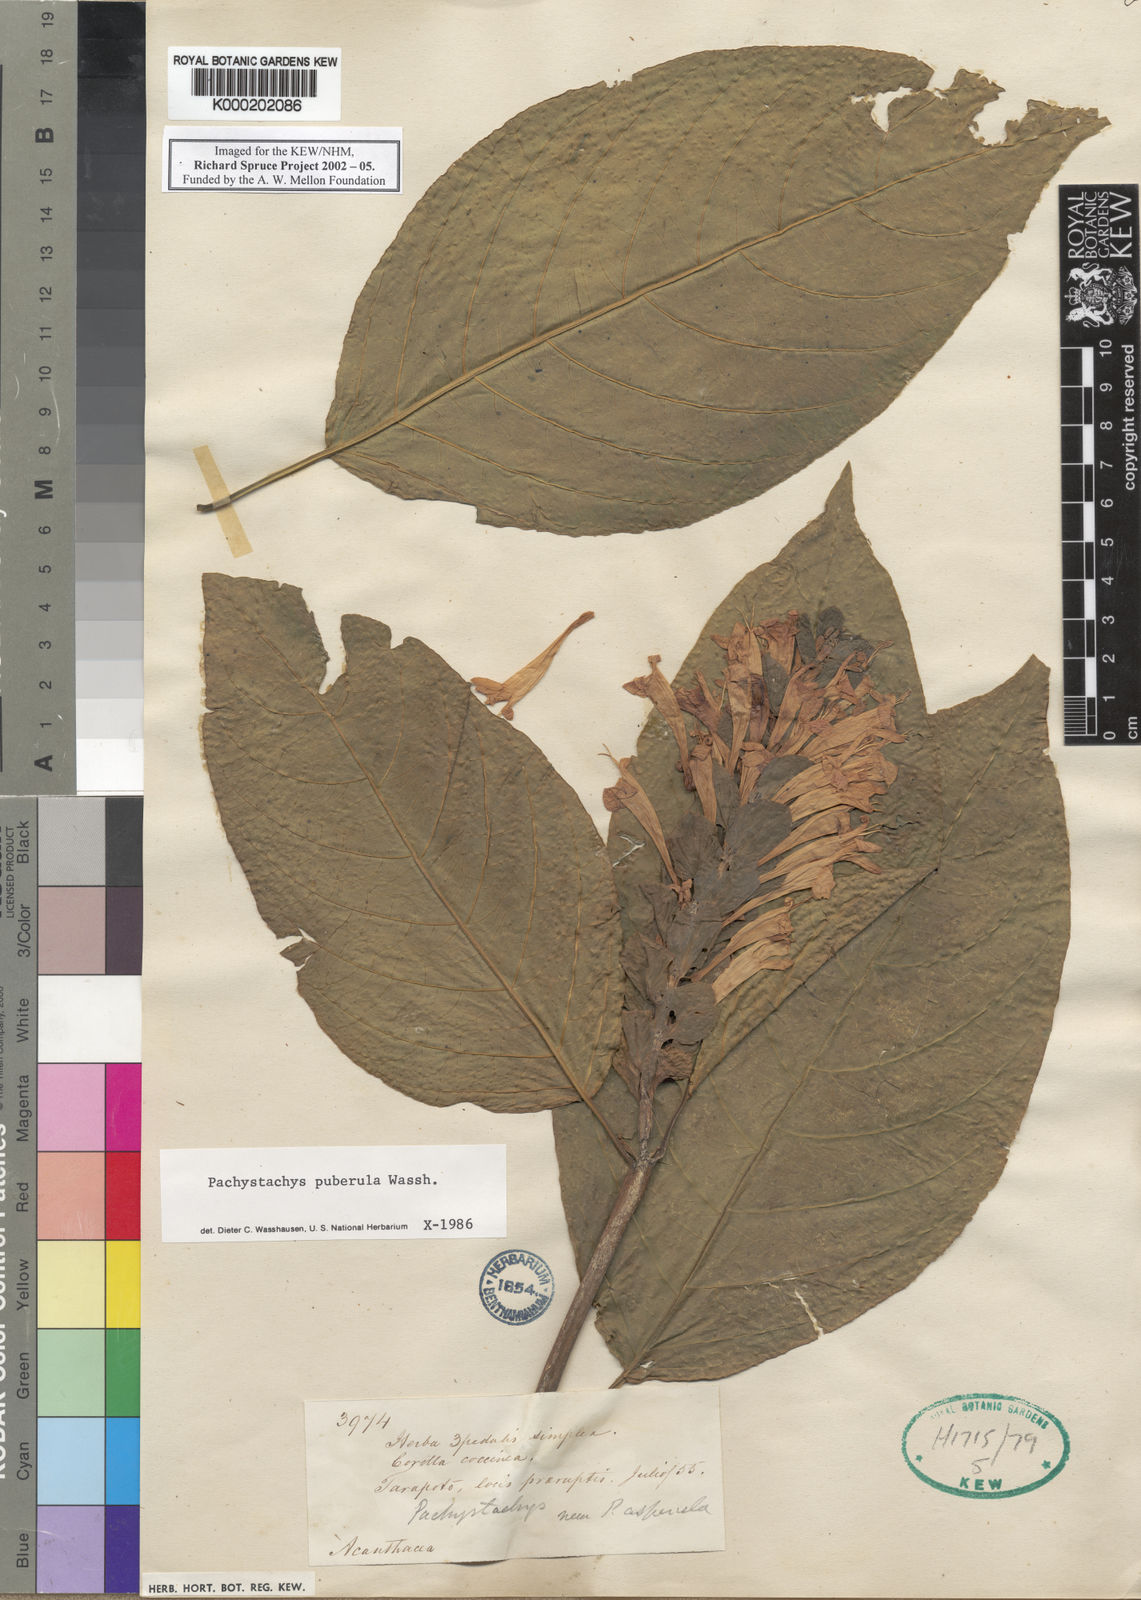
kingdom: Plantae
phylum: Tracheophyta
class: Magnoliopsida
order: Lamiales
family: Acanthaceae
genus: Pachystachys
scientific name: Pachystachys puberula
